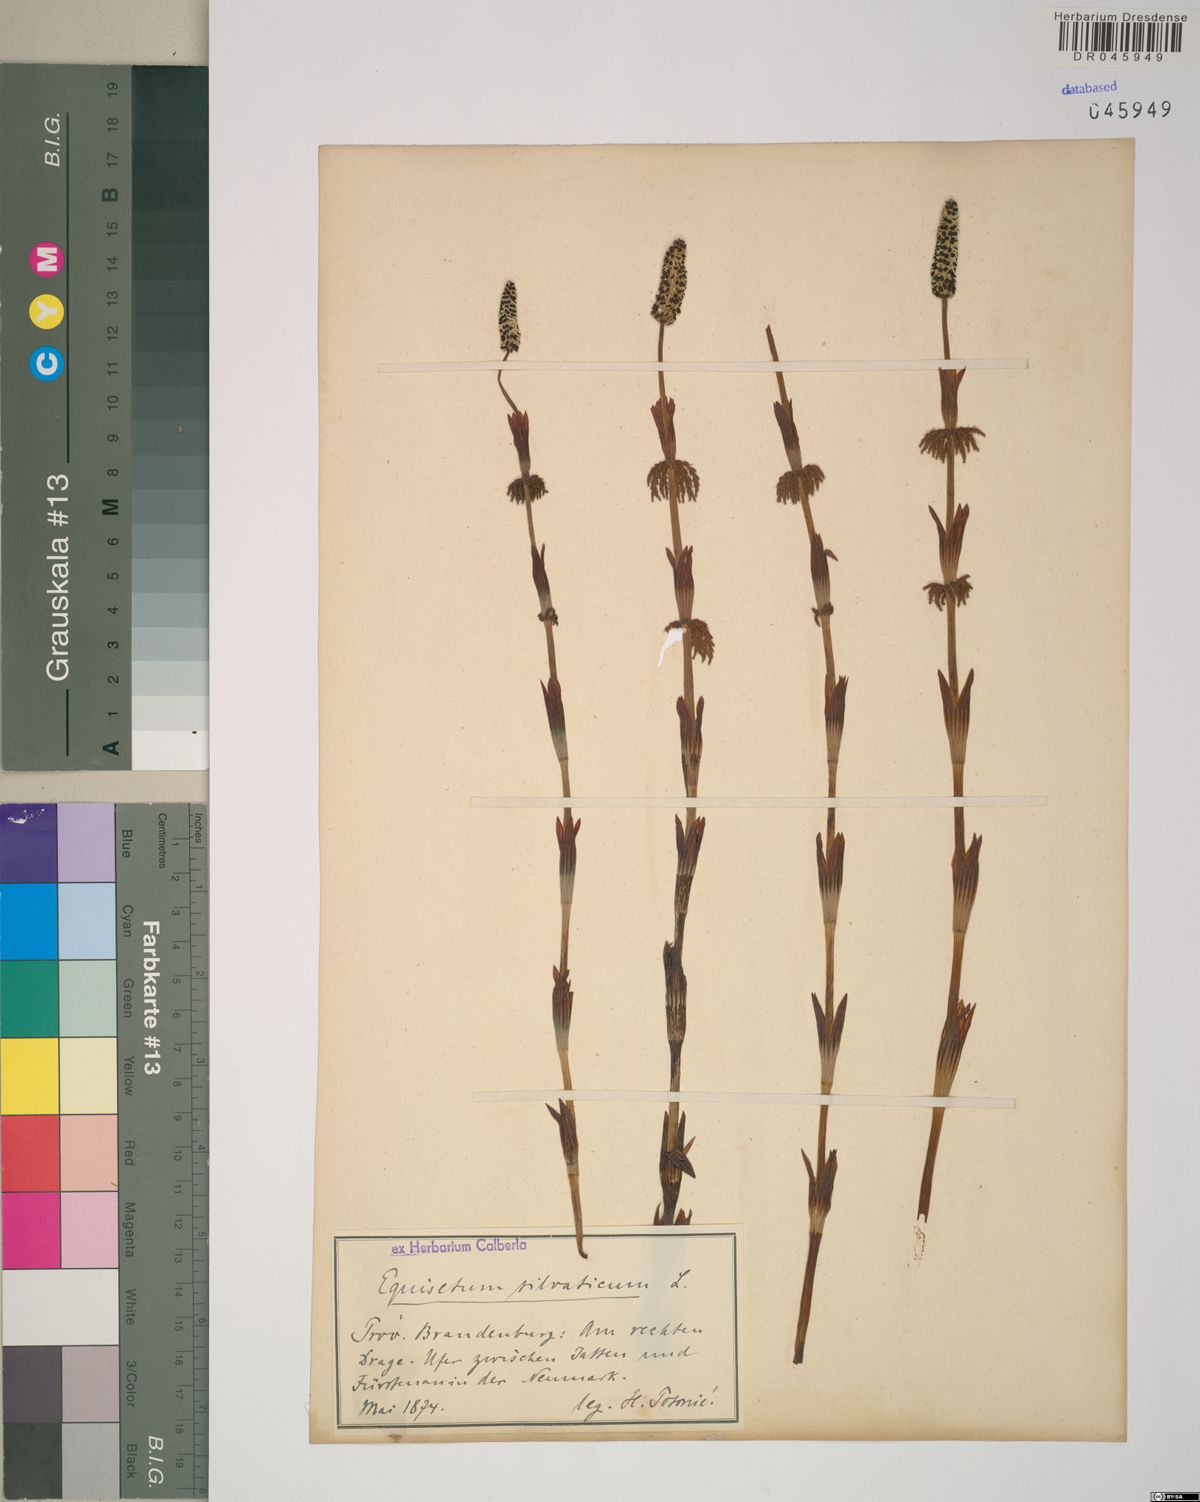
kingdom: Plantae
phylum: Tracheophyta
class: Polypodiopsida
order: Equisetales
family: Equisetaceae
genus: Equisetum
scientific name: Equisetum sylvaticum
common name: Wood horsetail
